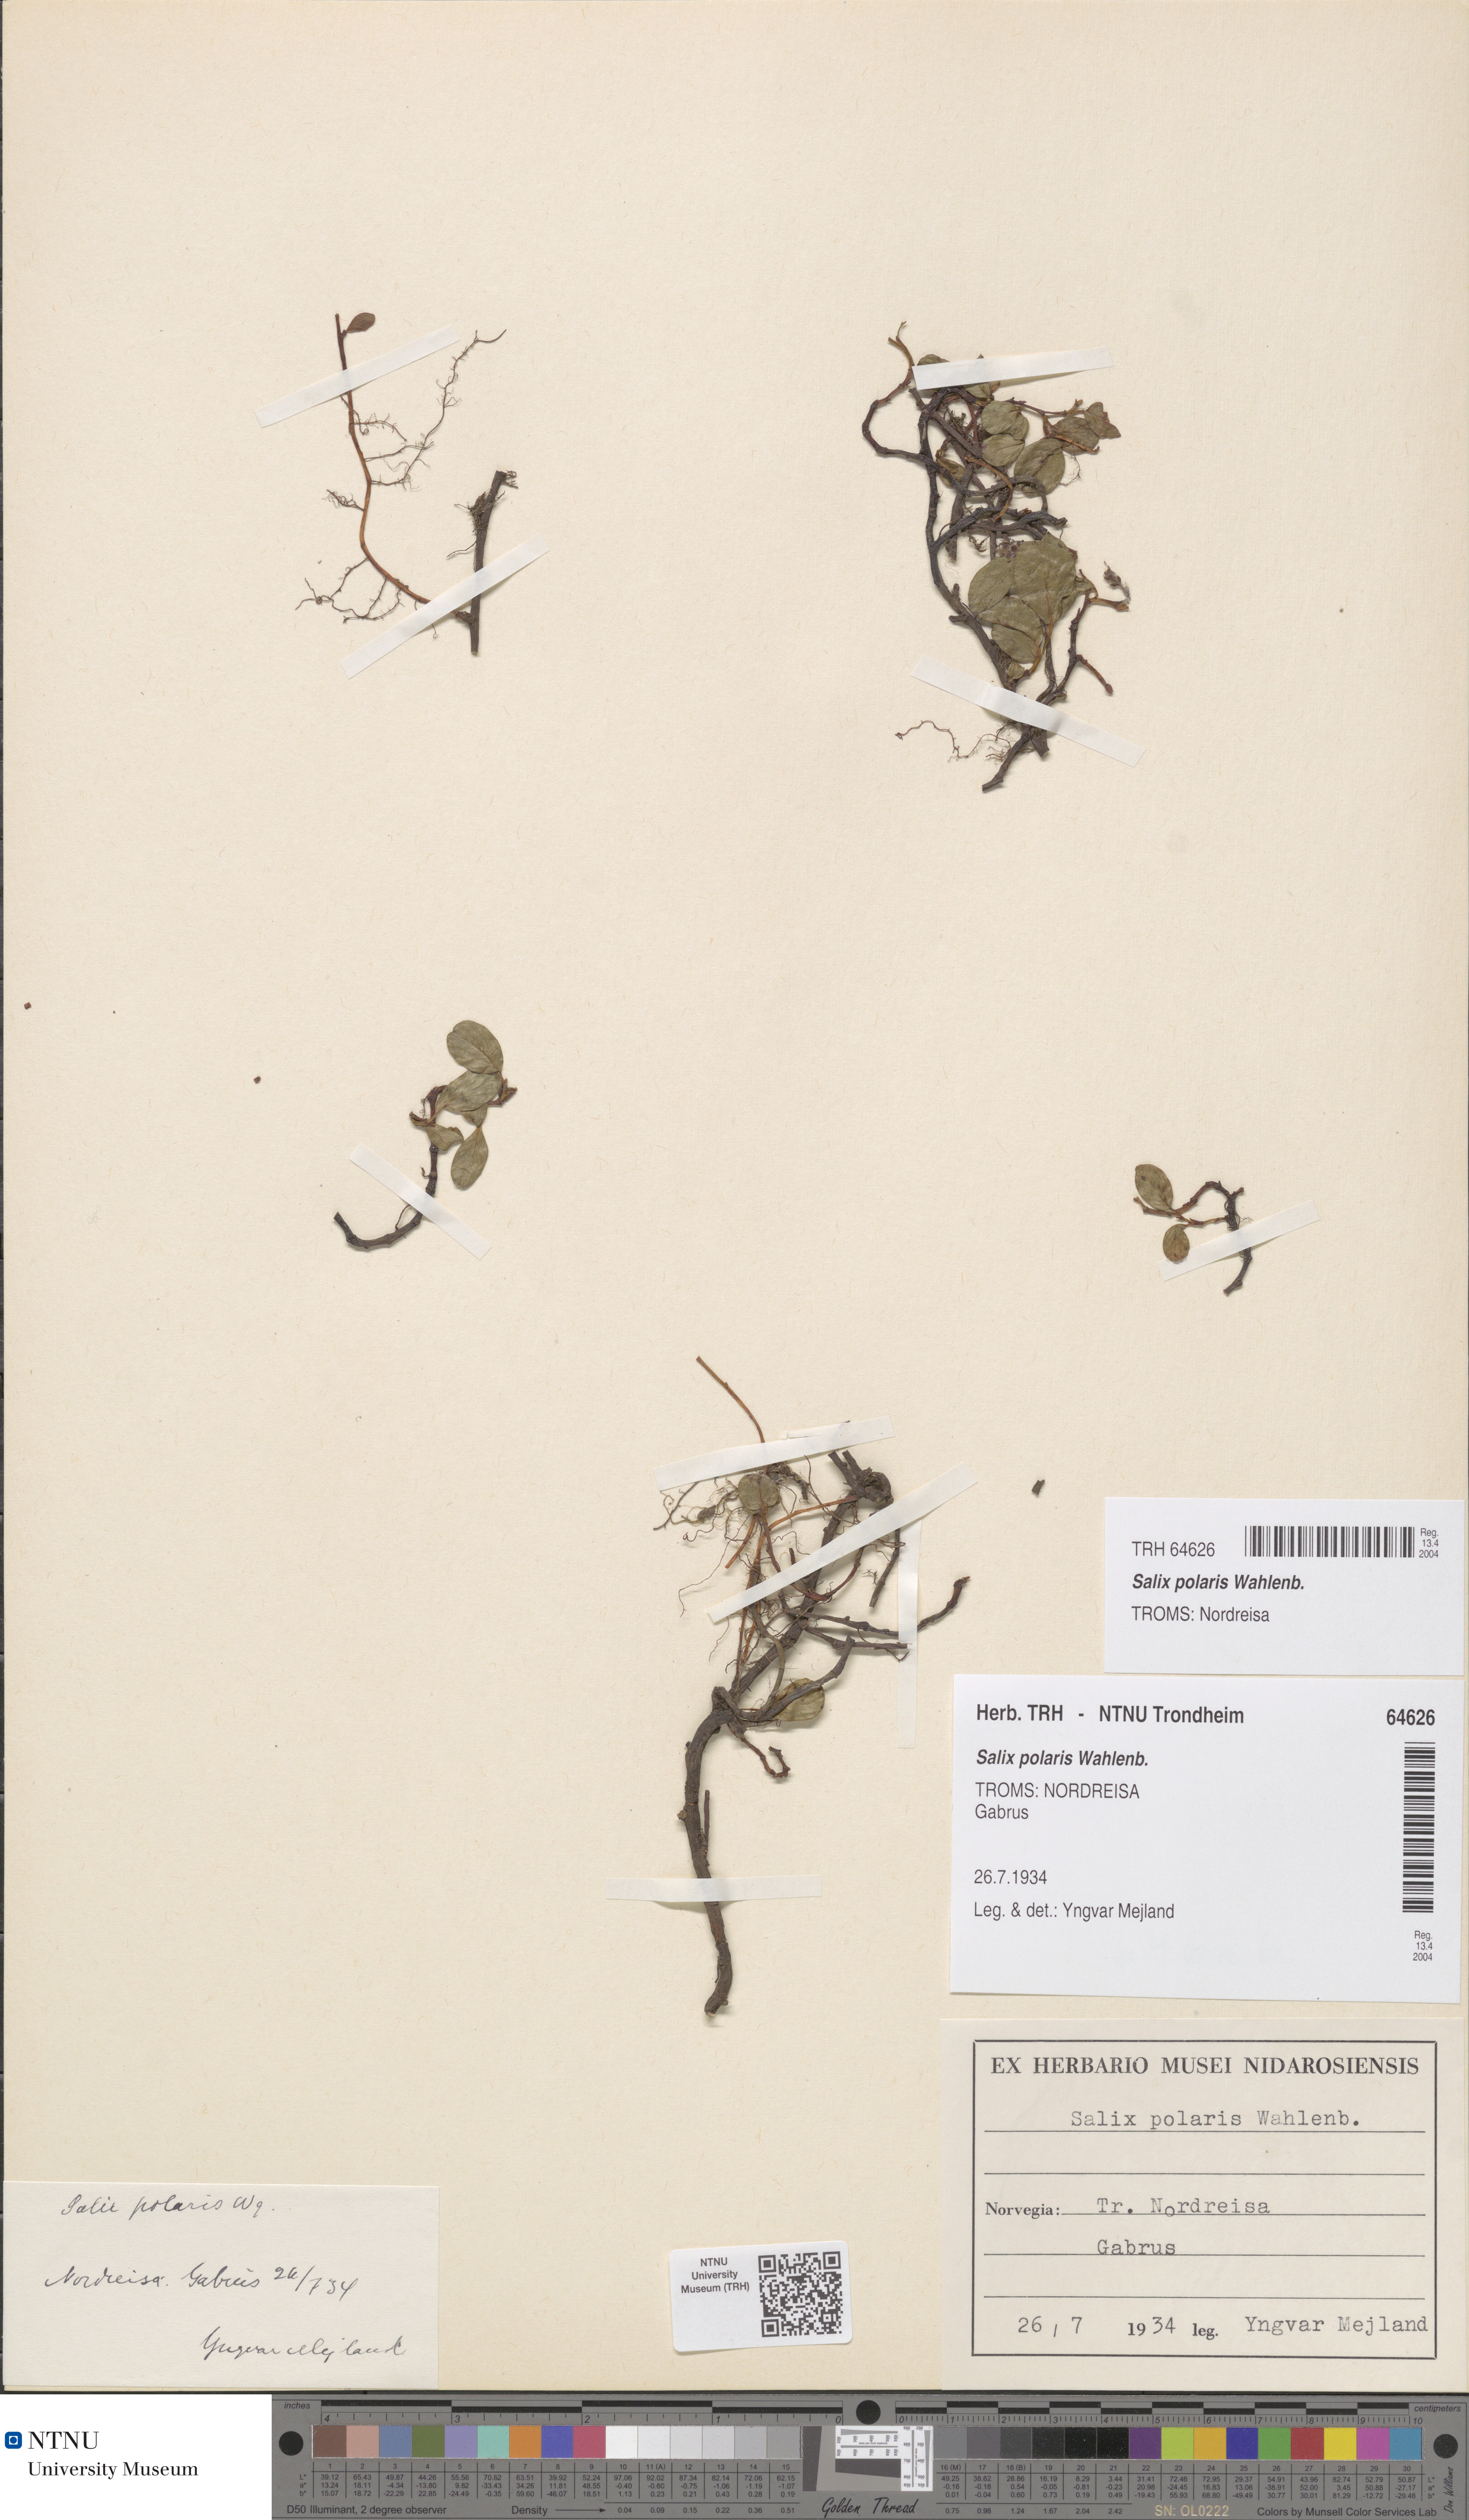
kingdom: Plantae
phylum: Tracheophyta
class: Magnoliopsida
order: Malpighiales
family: Salicaceae
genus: Salix
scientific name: Salix polaris
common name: Polar willow
